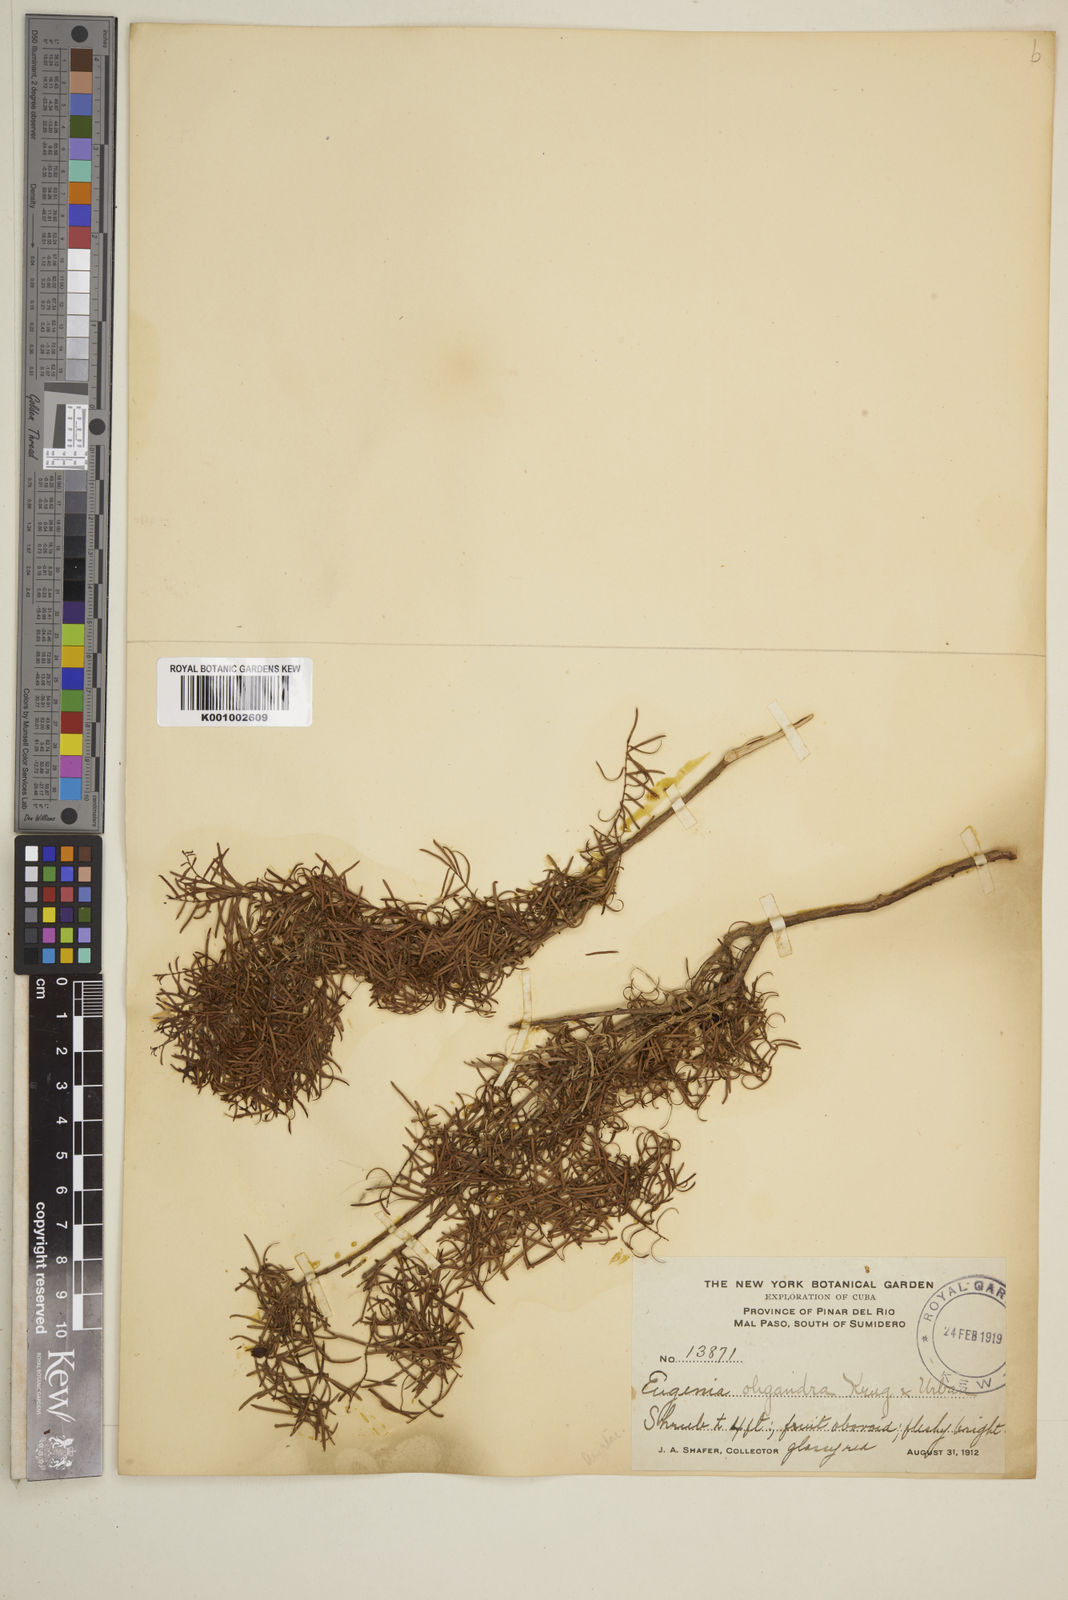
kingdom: Plantae
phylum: Tracheophyta
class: Magnoliopsida
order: Myrtales
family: Myrtaceae
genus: Eugenia
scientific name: Eugenia oligandra
